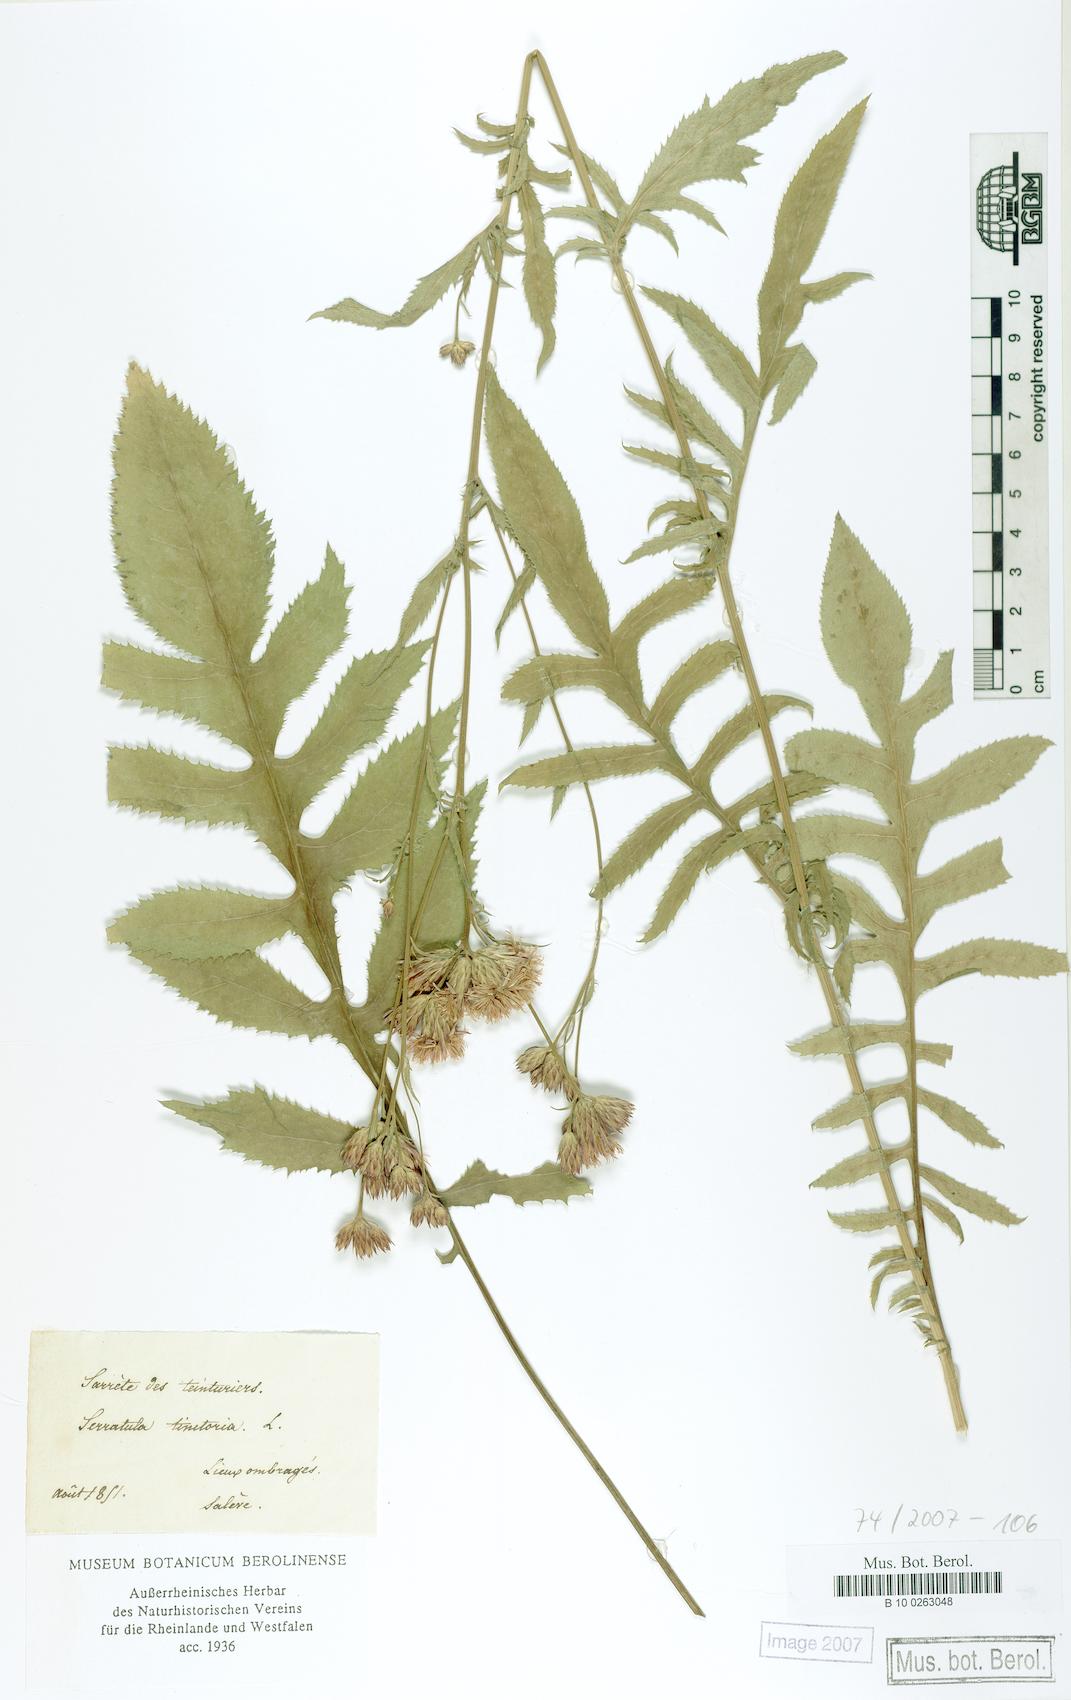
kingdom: Plantae
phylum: Tracheophyta
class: Magnoliopsida
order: Asterales
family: Asteraceae
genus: Serratula
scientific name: Serratula tinctoria
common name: Saw-wort
